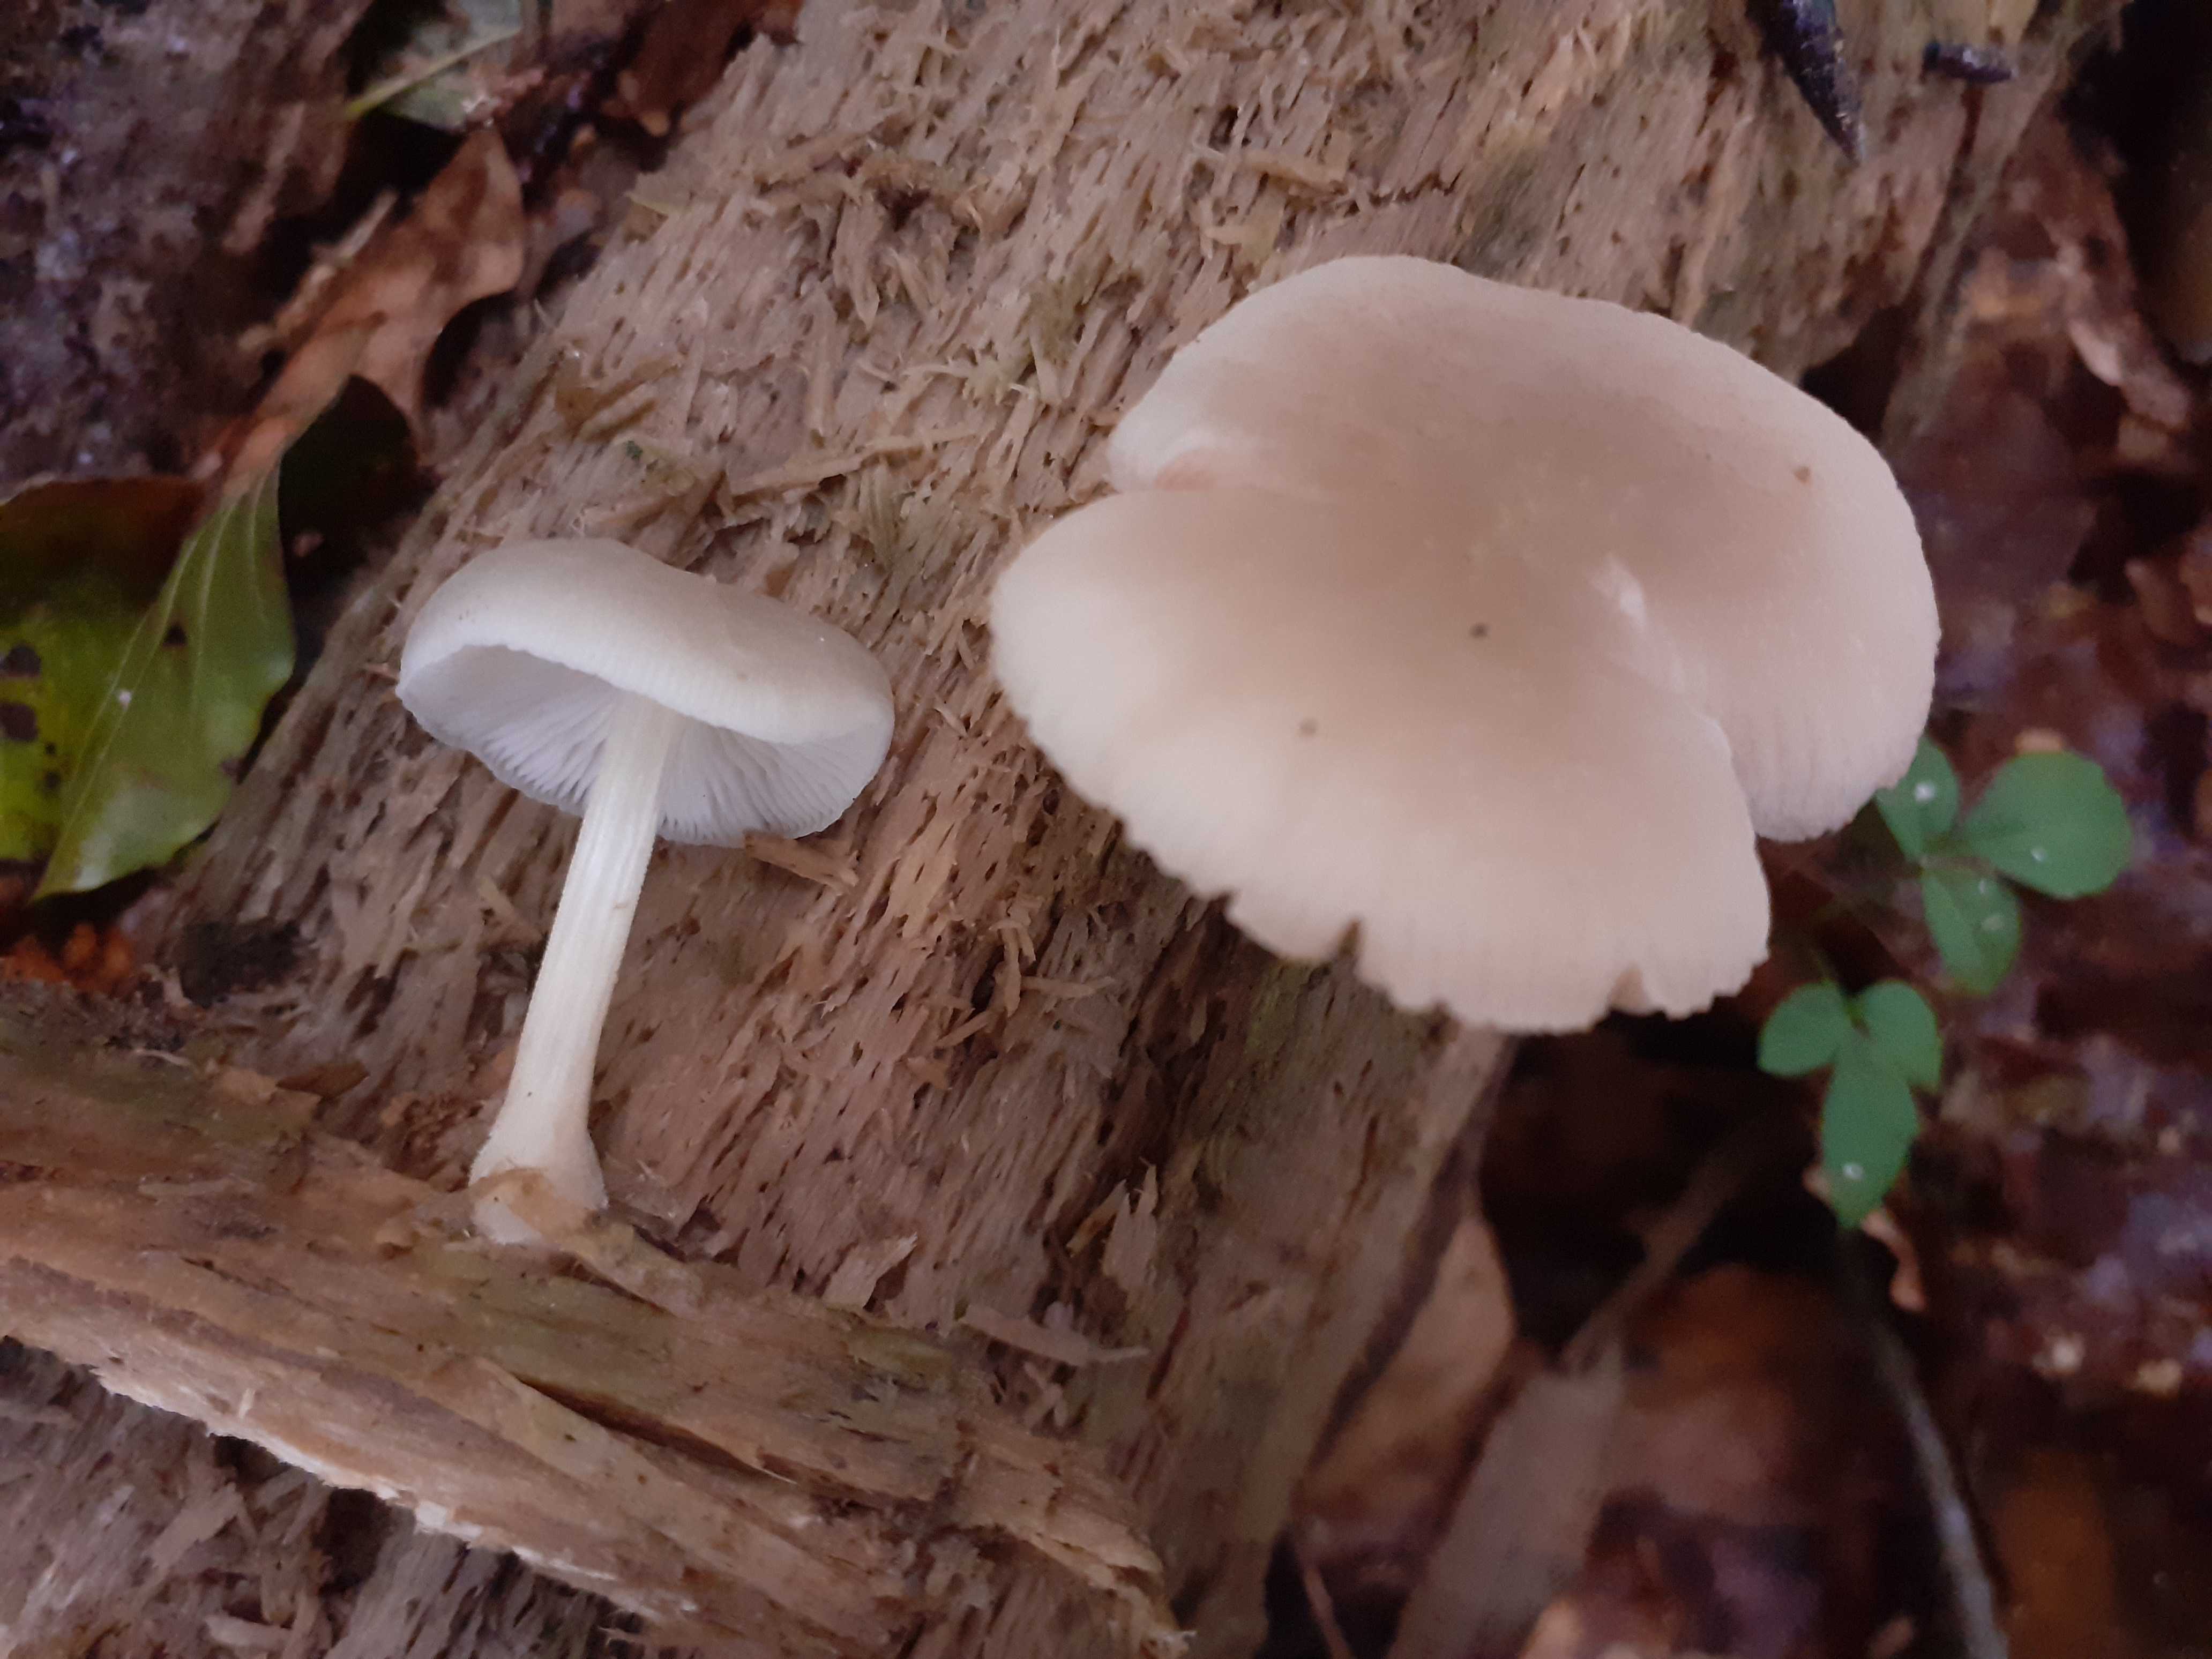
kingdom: Fungi
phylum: Basidiomycota
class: Agaricomycetes
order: Agaricales
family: Pluteaceae
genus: Pluteus
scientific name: Pluteus plautus
